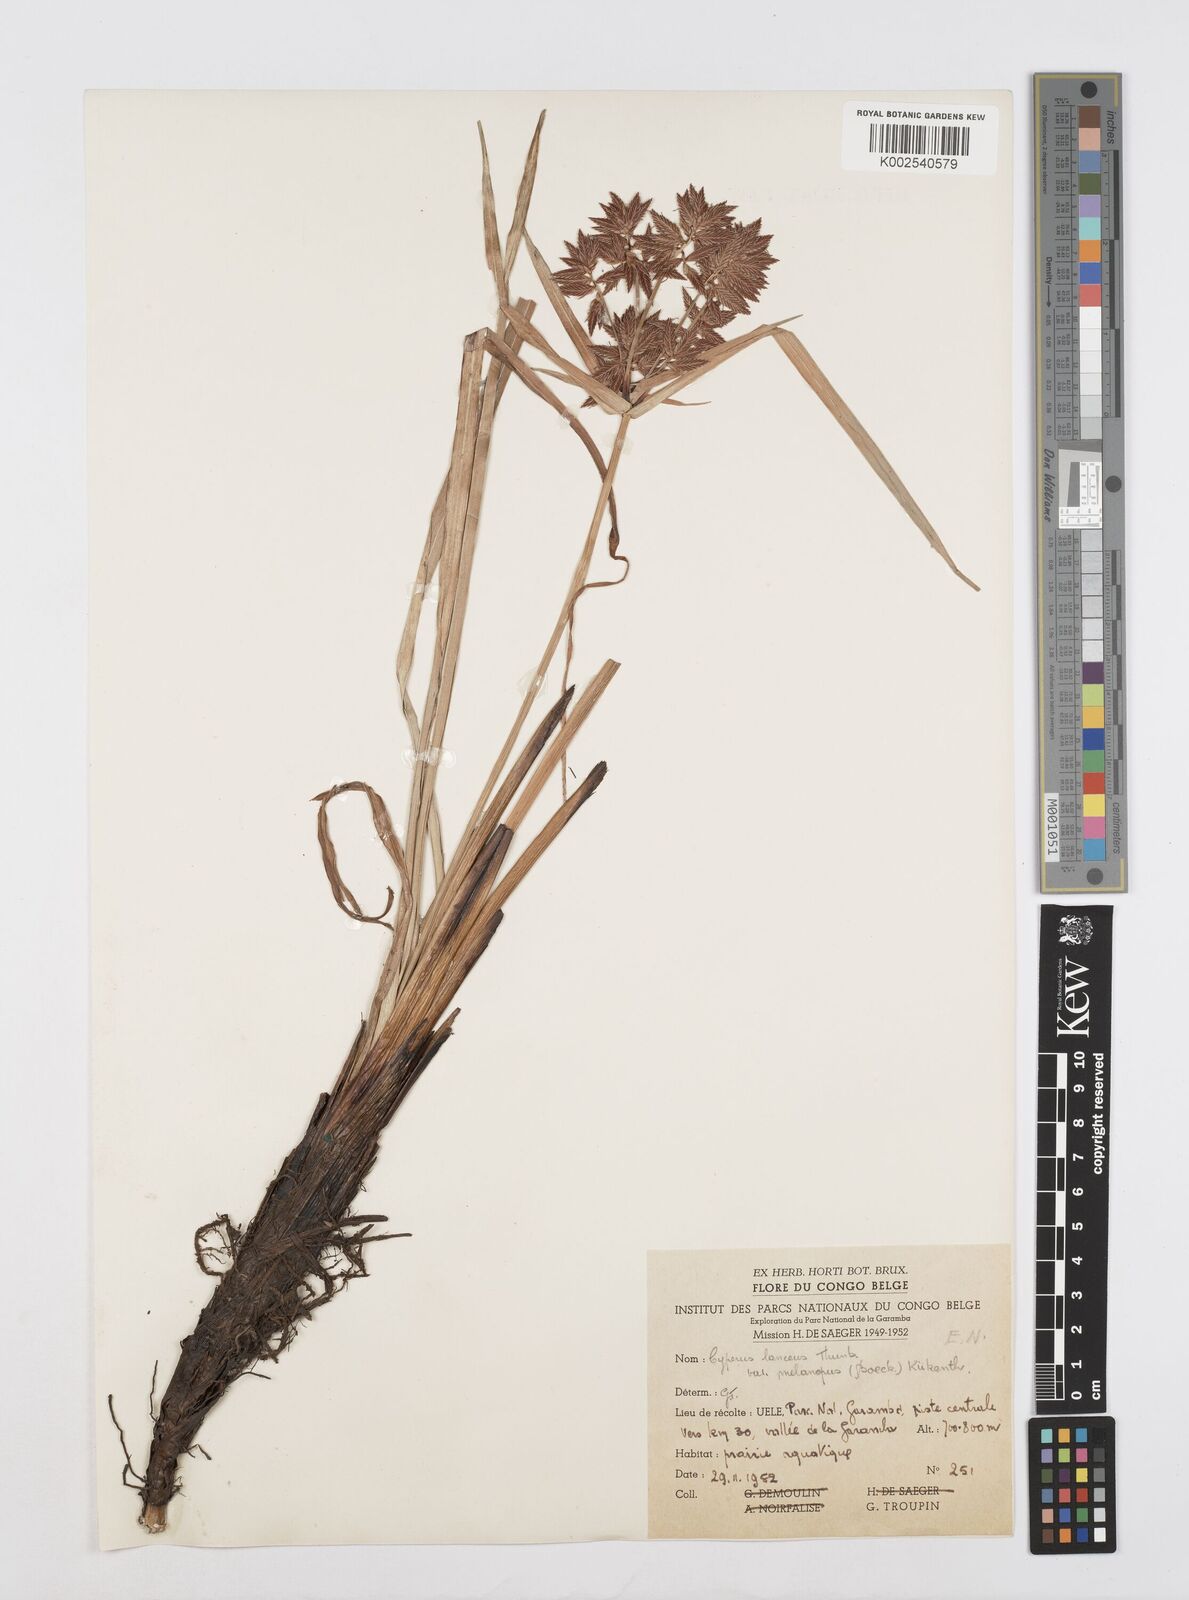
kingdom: Plantae
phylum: Tracheophyta
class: Liliopsida
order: Poales
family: Cyperaceae
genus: Cyperus
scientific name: Cyperus nitidus
